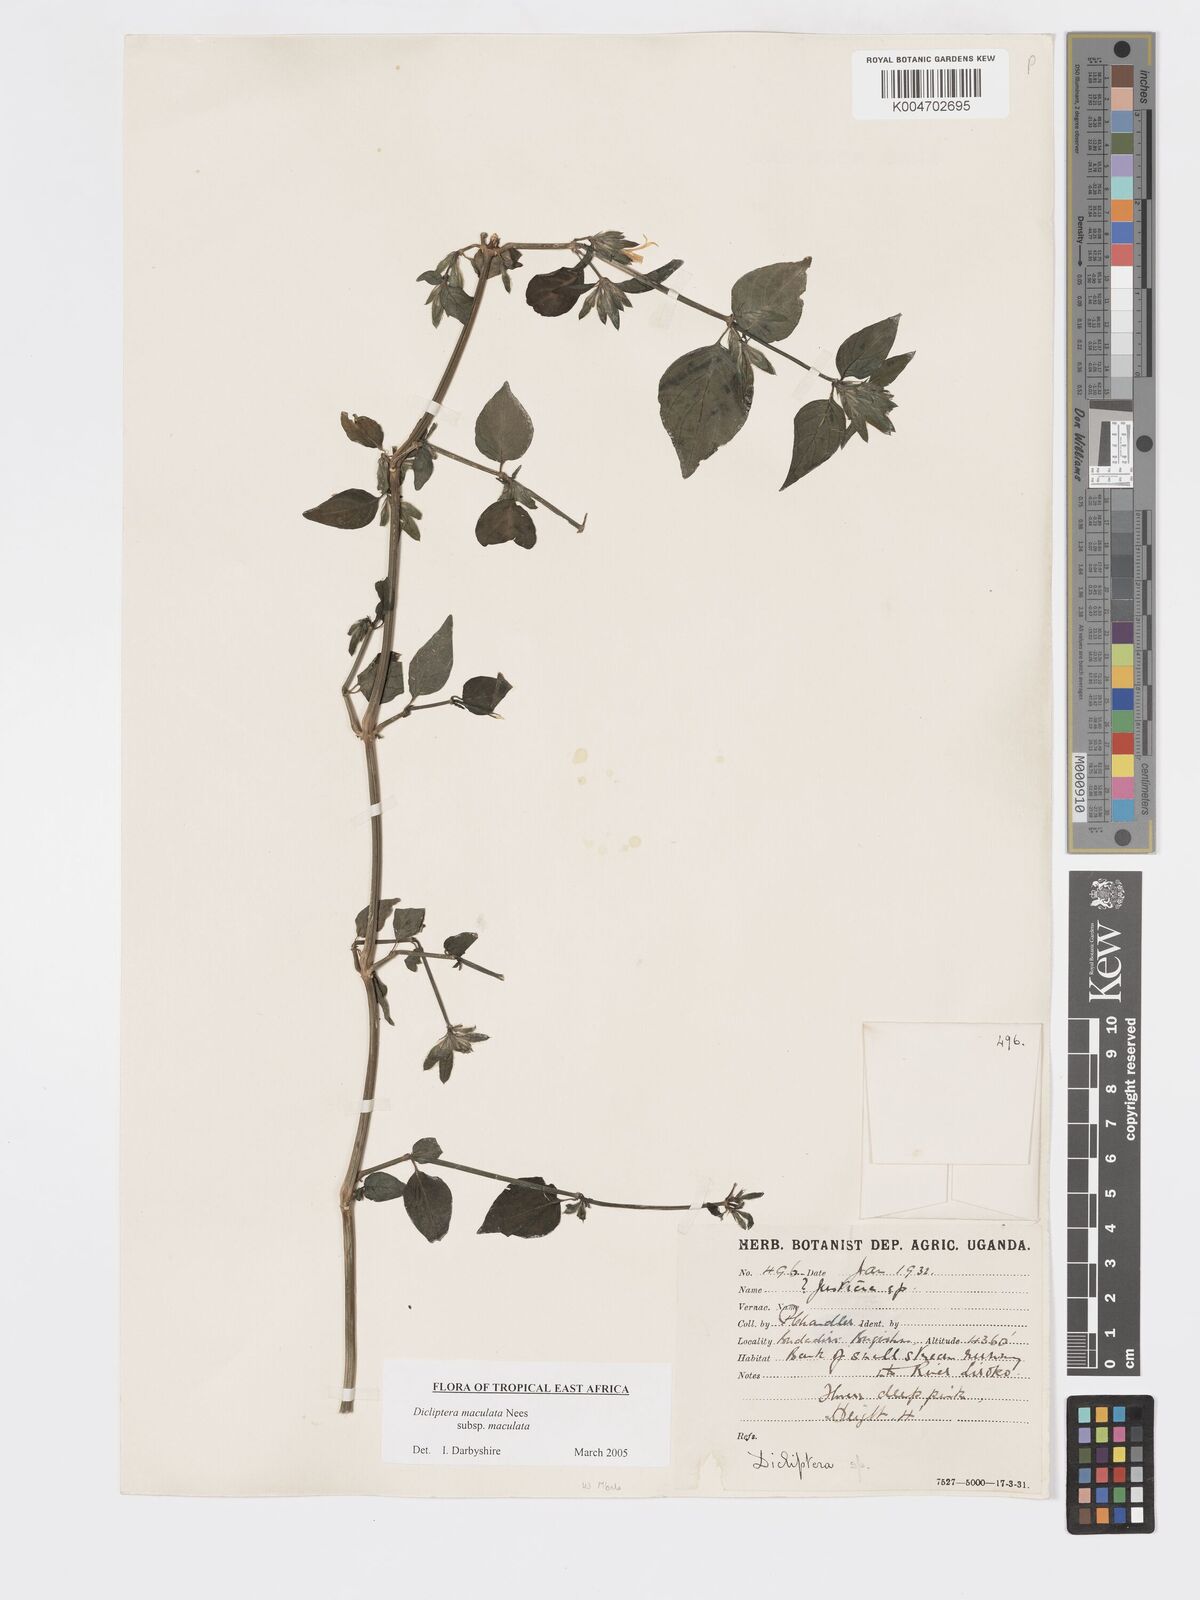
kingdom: Plantae
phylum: Tracheophyta
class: Magnoliopsida
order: Lamiales
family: Acanthaceae
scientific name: Acanthaceae
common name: Acanthaceae
